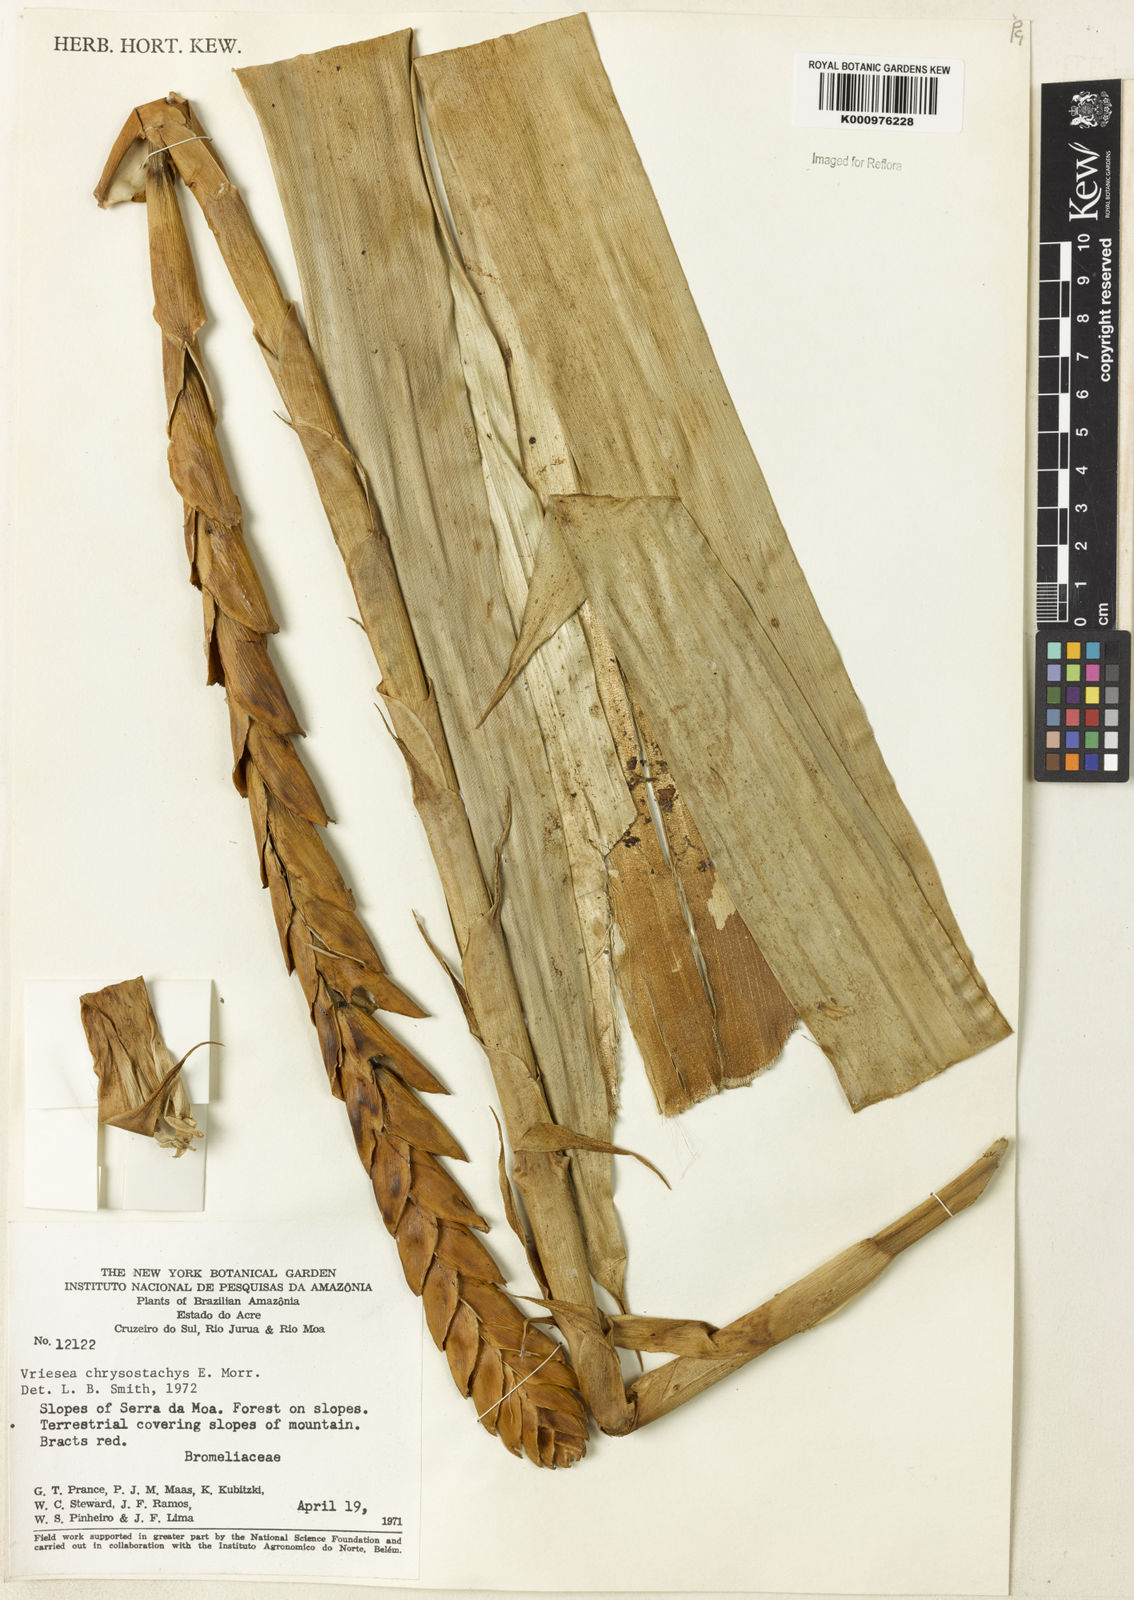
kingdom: Plantae
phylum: Tracheophyta
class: Liliopsida
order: Poales
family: Bromeliaceae
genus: Vriesea
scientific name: Vriesea
